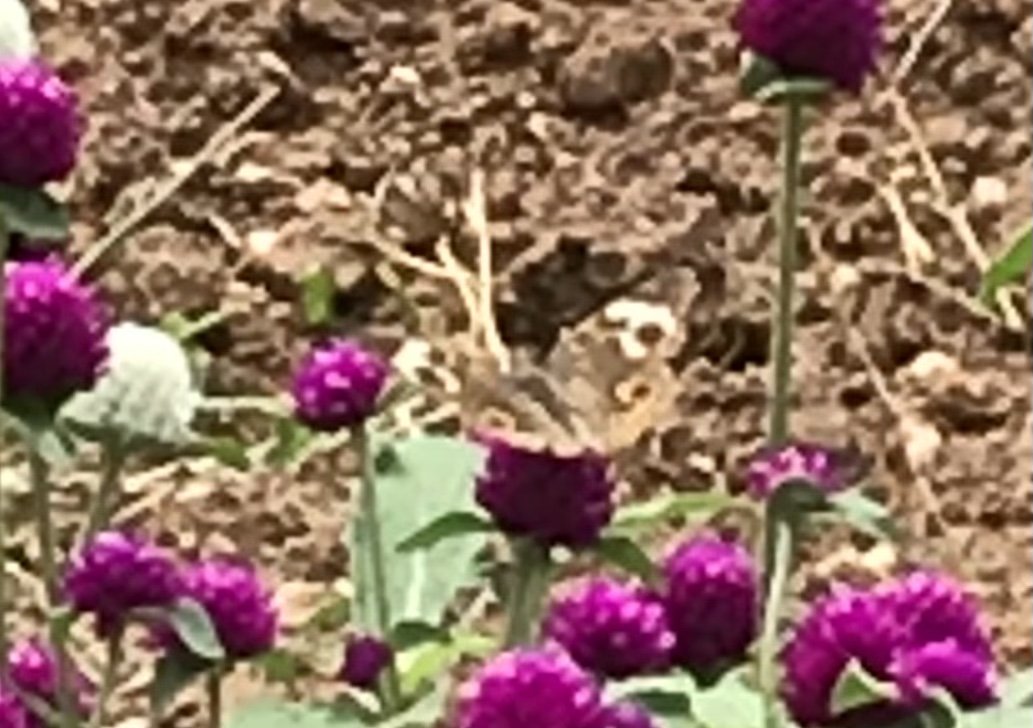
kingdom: Animalia
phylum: Arthropoda
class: Insecta
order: Lepidoptera
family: Nymphalidae
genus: Junonia
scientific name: Junonia coenia
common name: Common Buckeye
